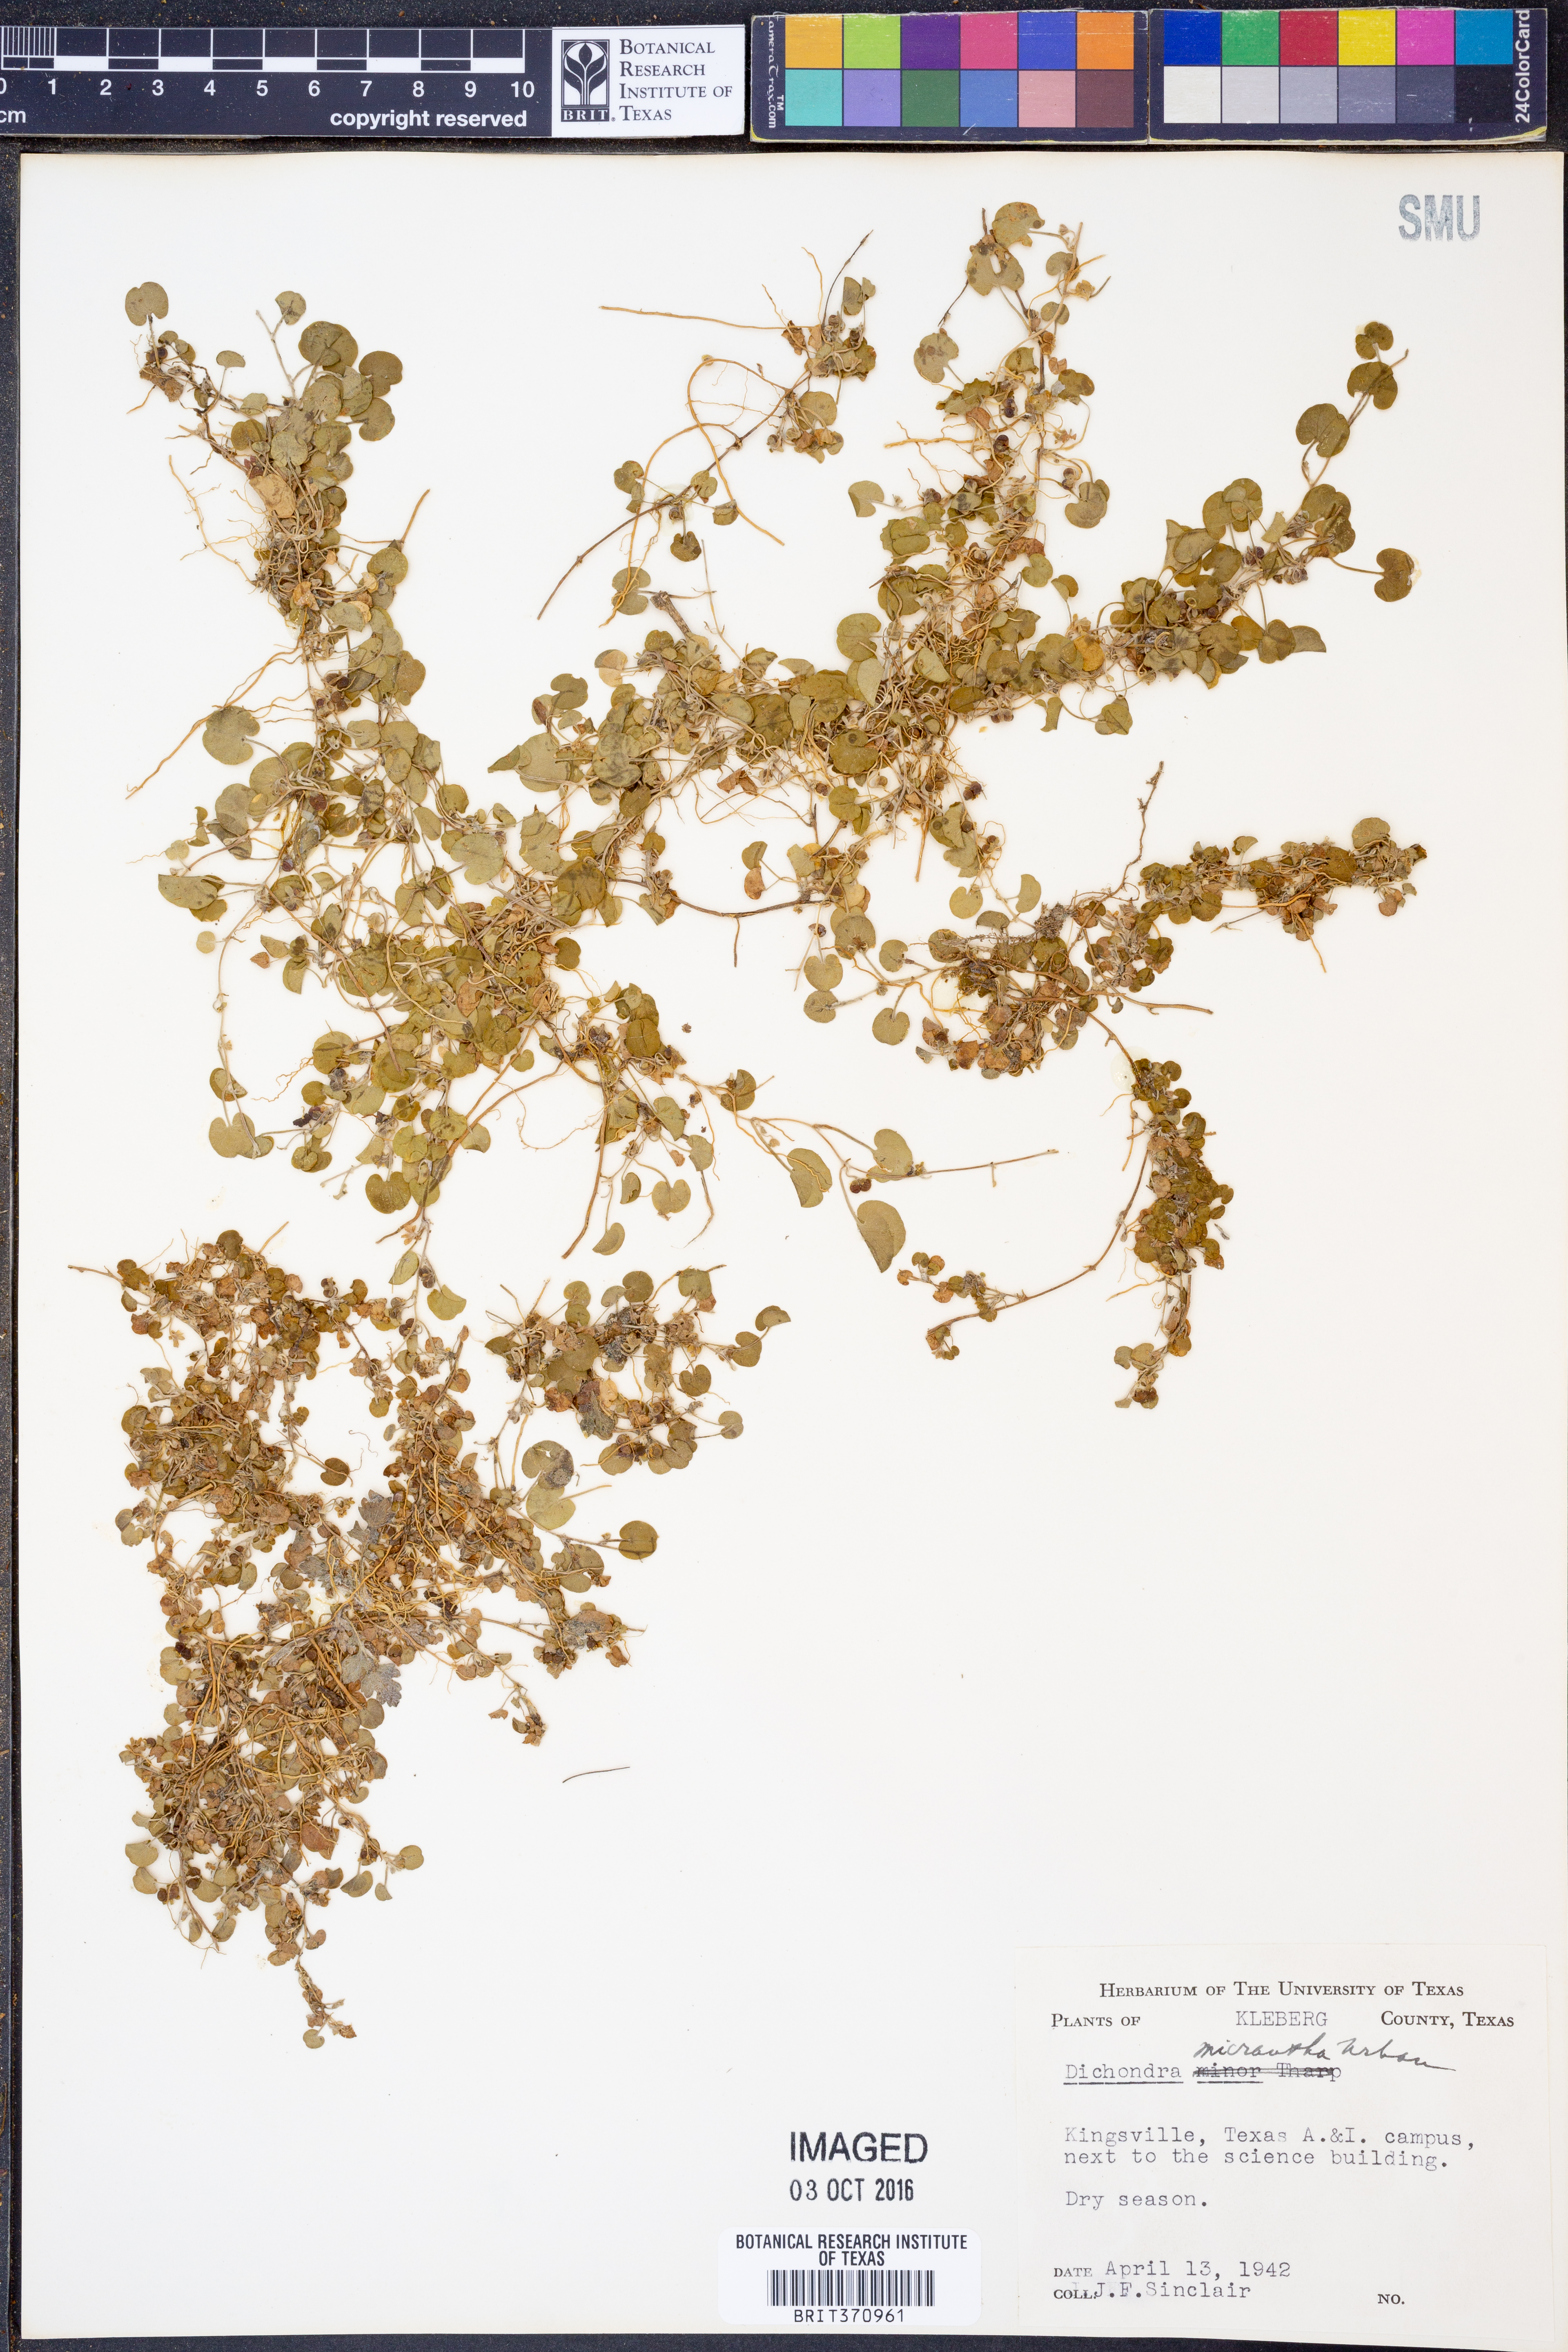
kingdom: Plantae
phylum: Tracheophyta
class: Magnoliopsida
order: Solanales
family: Convolvulaceae
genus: Dichondra
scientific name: Dichondra micrantha
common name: Kidneyweed
